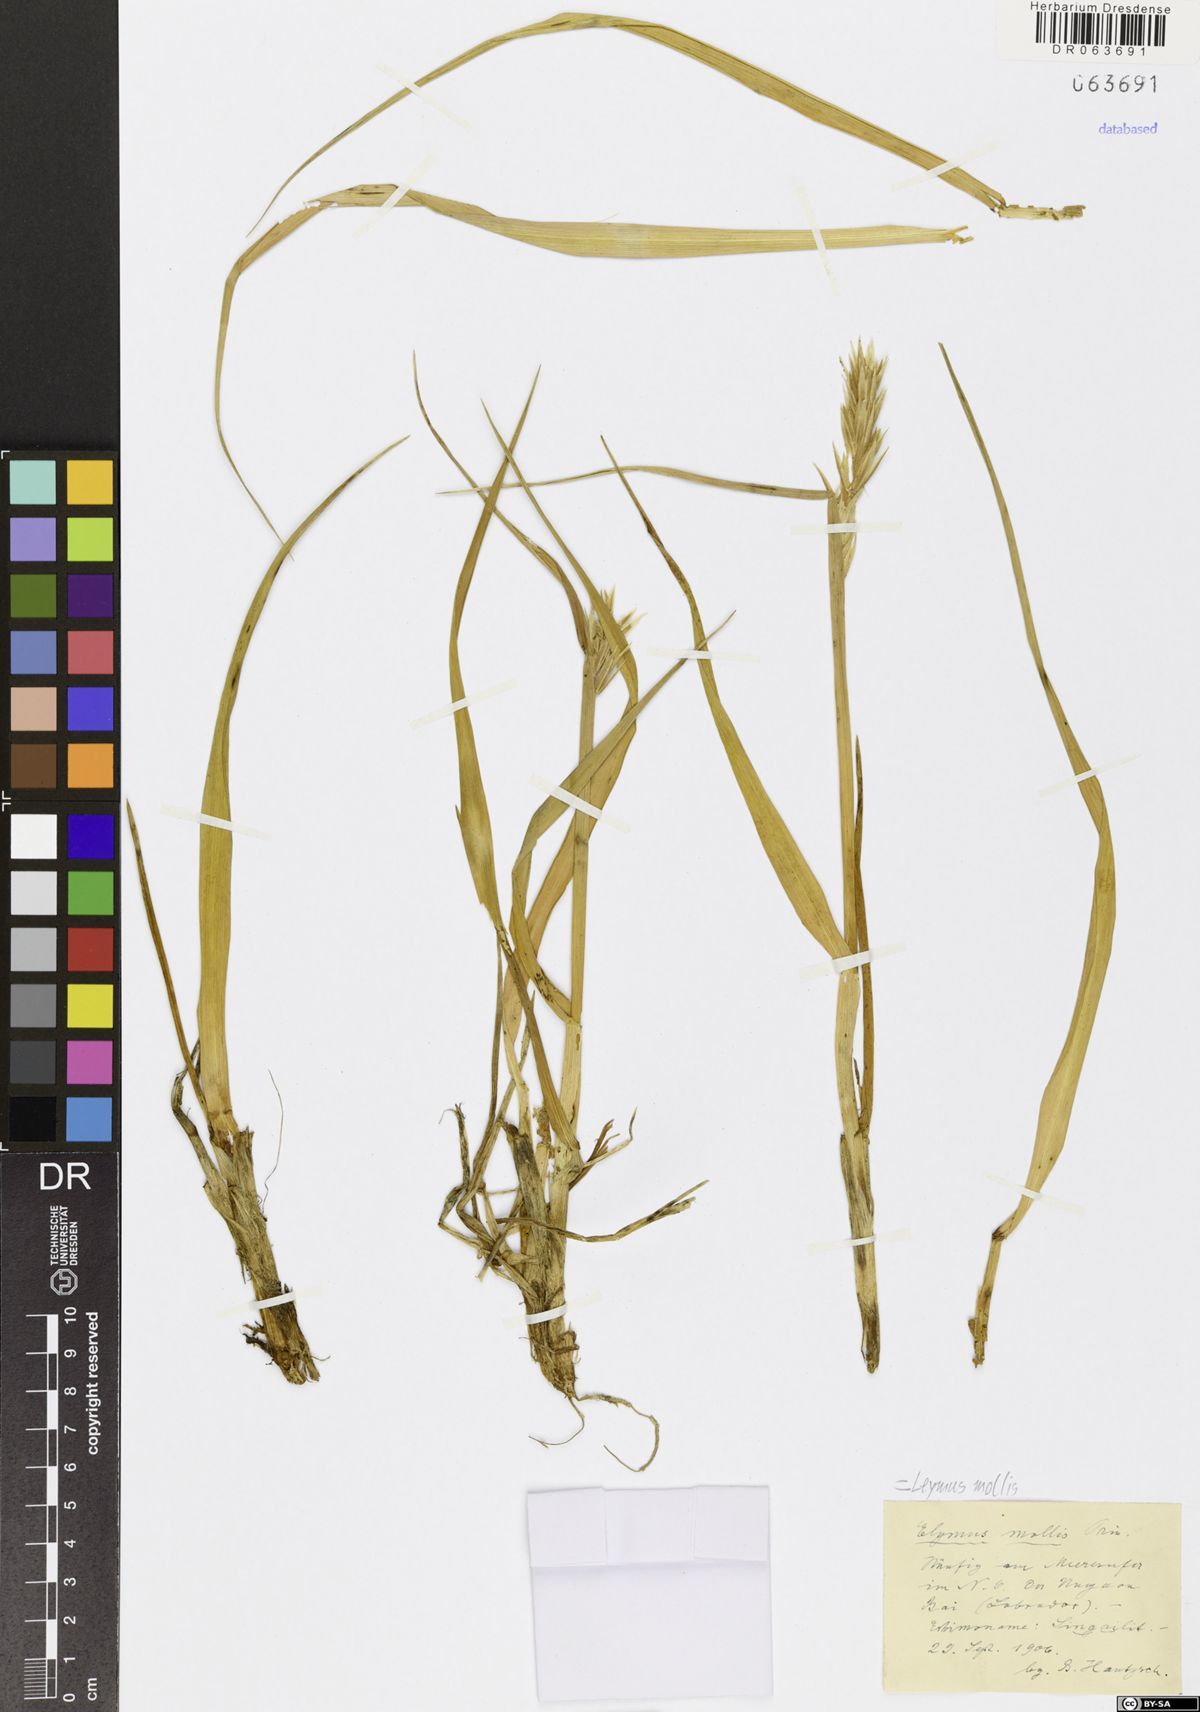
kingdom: Plantae
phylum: Tracheophyta
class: Liliopsida
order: Poales
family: Poaceae
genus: Leymus
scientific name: Leymus mollis
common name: American dune grass
